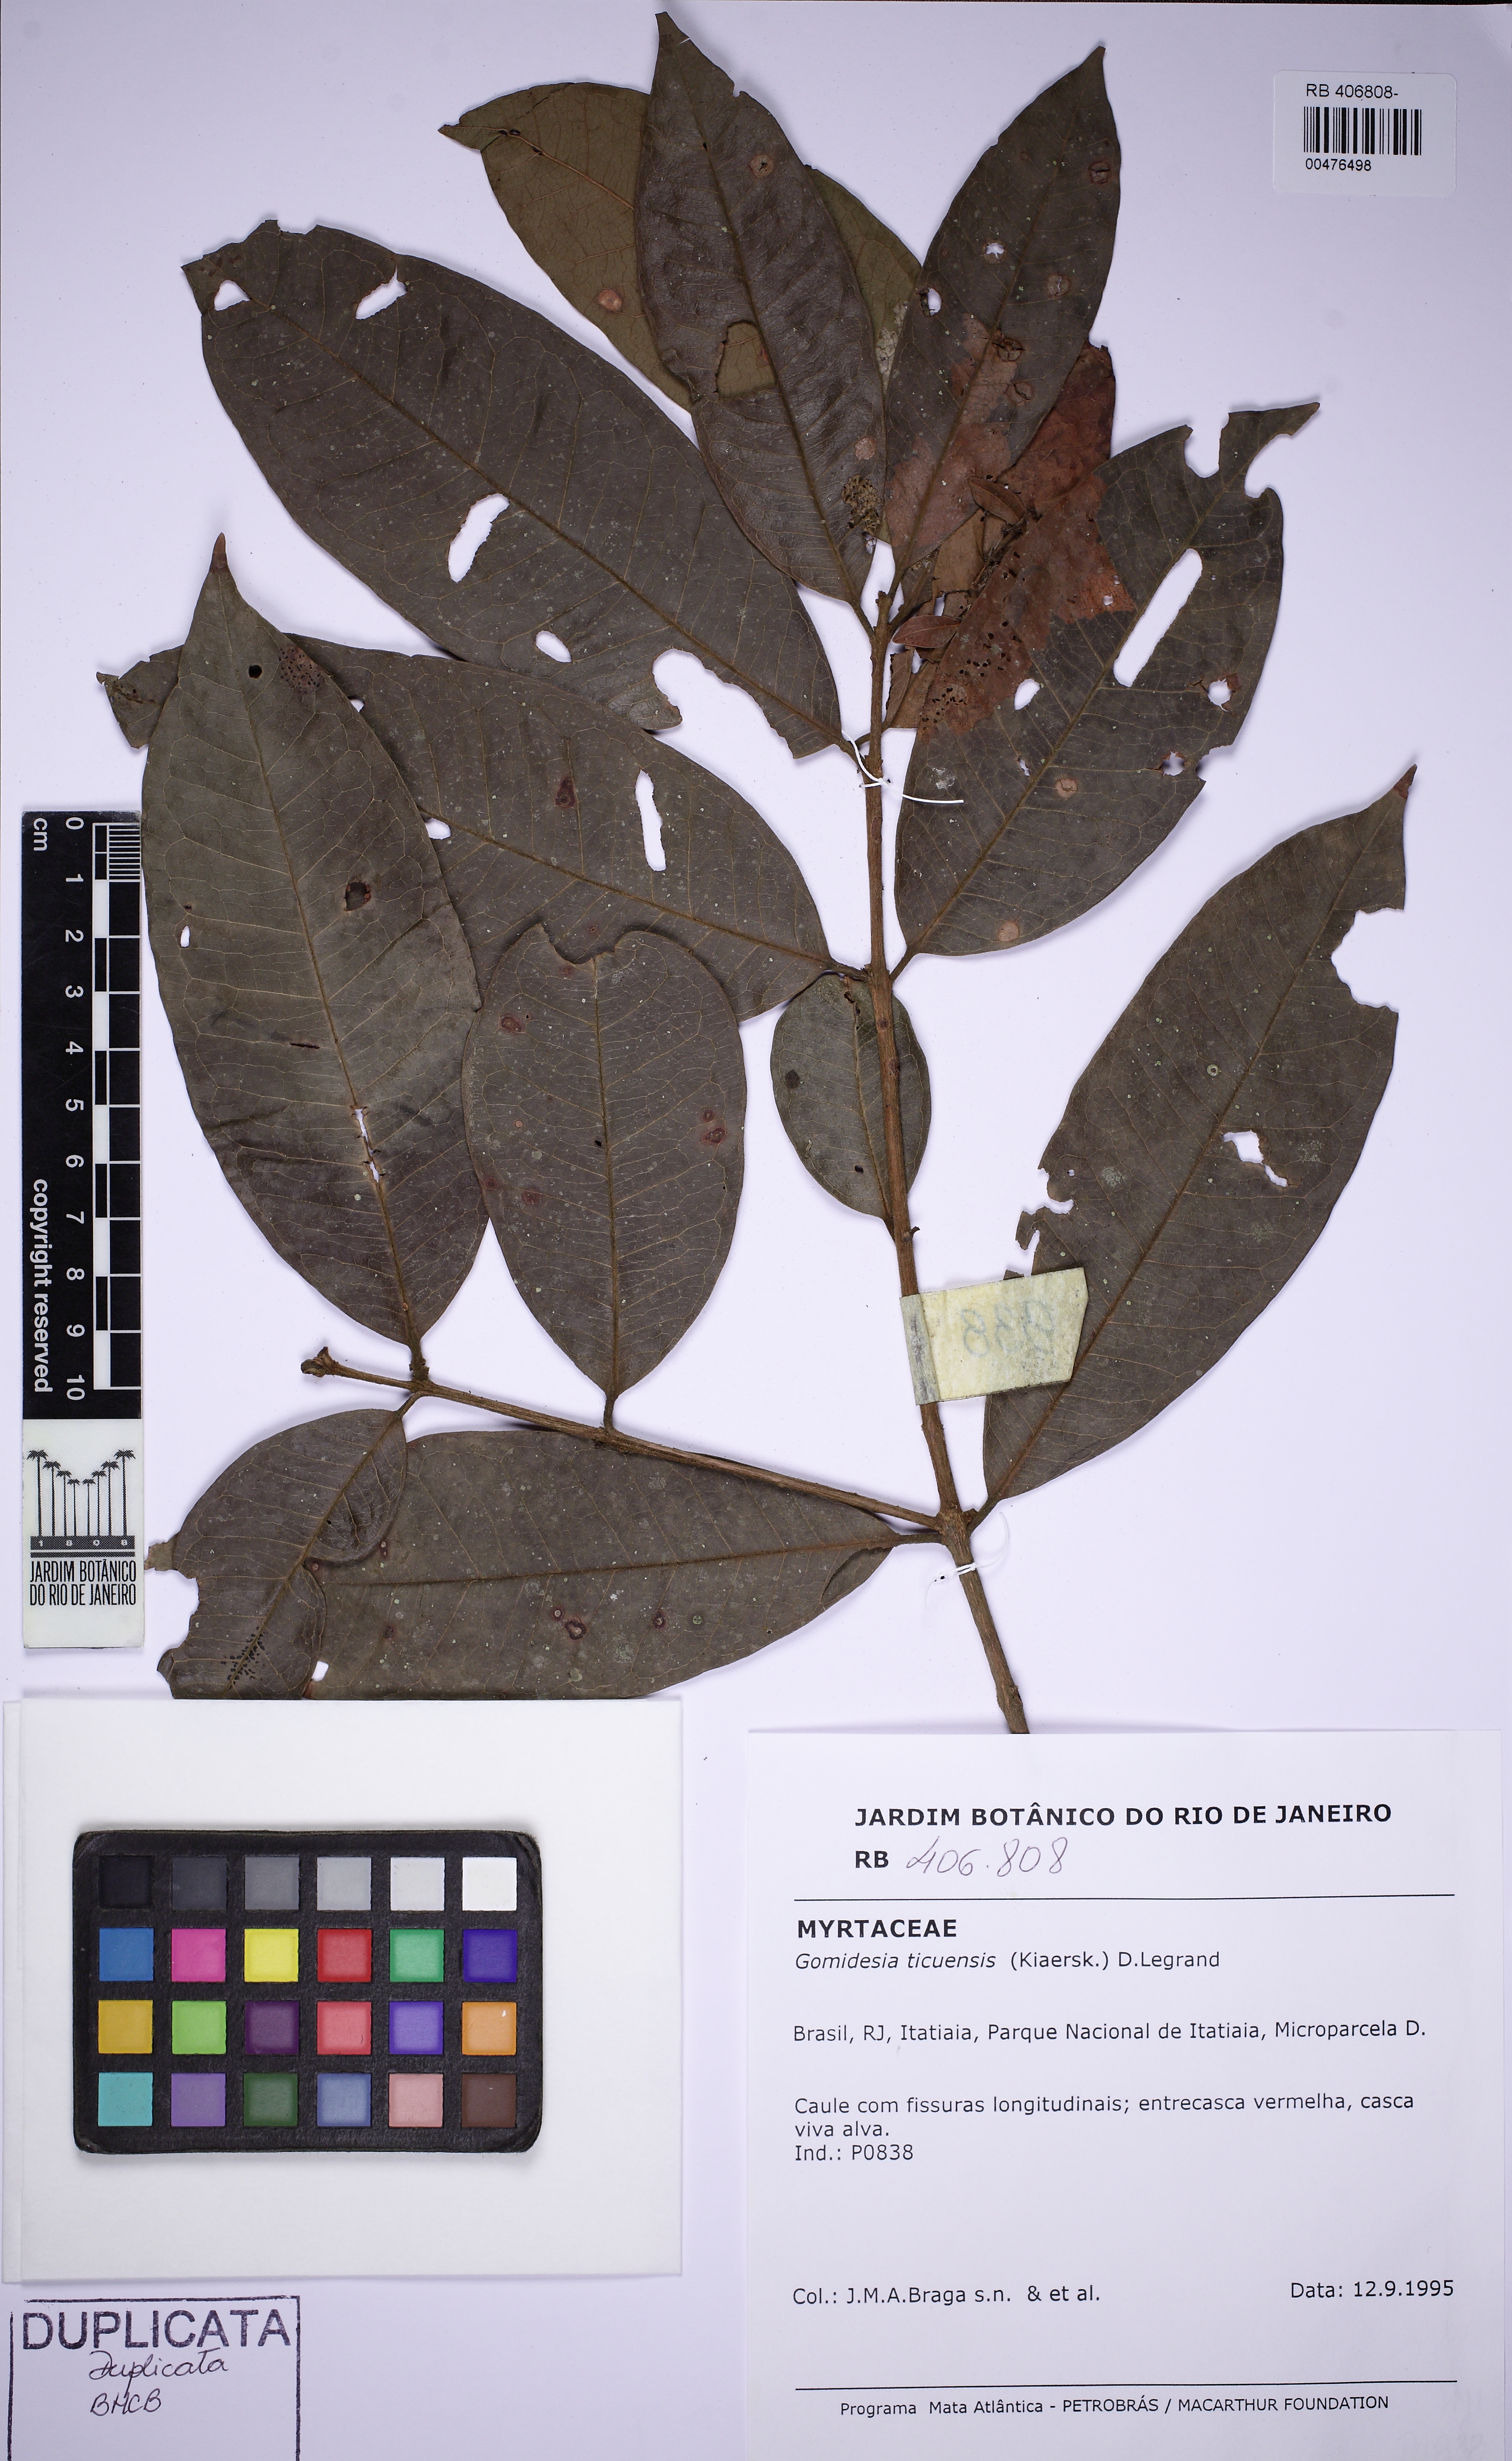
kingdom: Plantae
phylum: Tracheophyta
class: Magnoliopsida
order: Myrtales
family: Myrtaceae
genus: Myrcia
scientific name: Myrcia grandifolia
